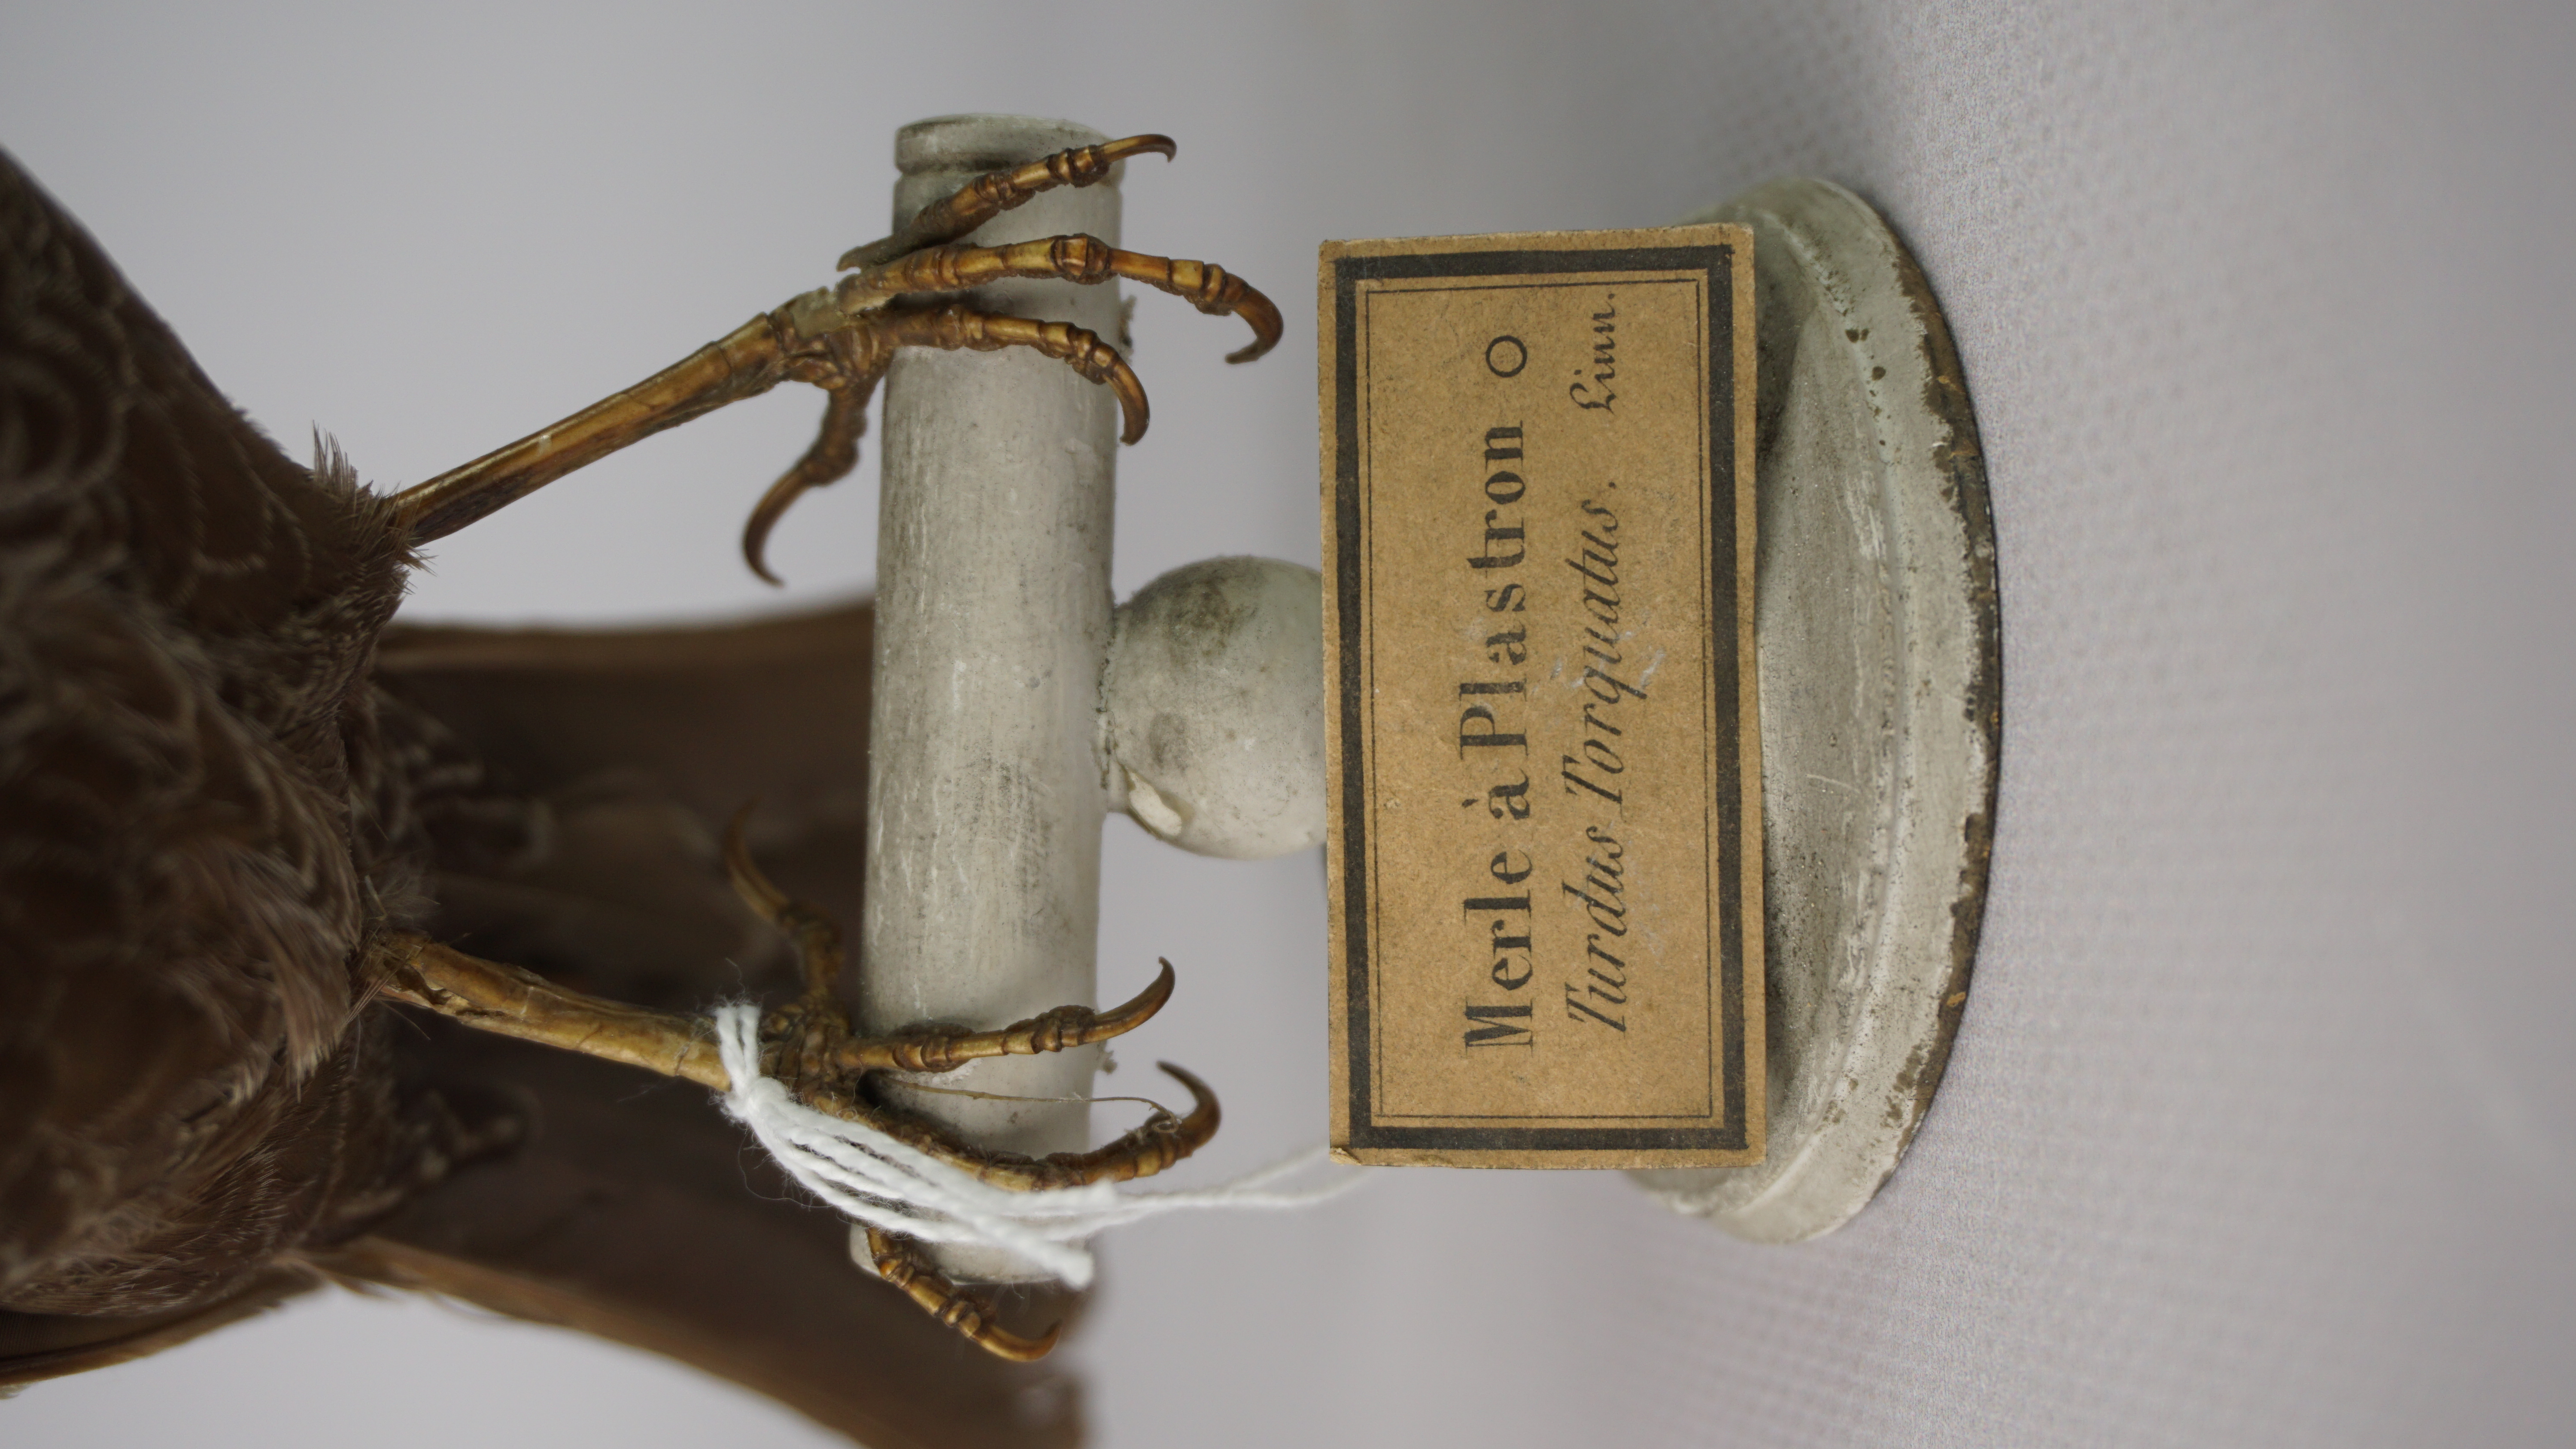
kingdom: Animalia
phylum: Chordata
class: Aves
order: Passeriformes
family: Turdidae
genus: Turdus
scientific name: Turdus torquatus
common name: Ring ouzel
